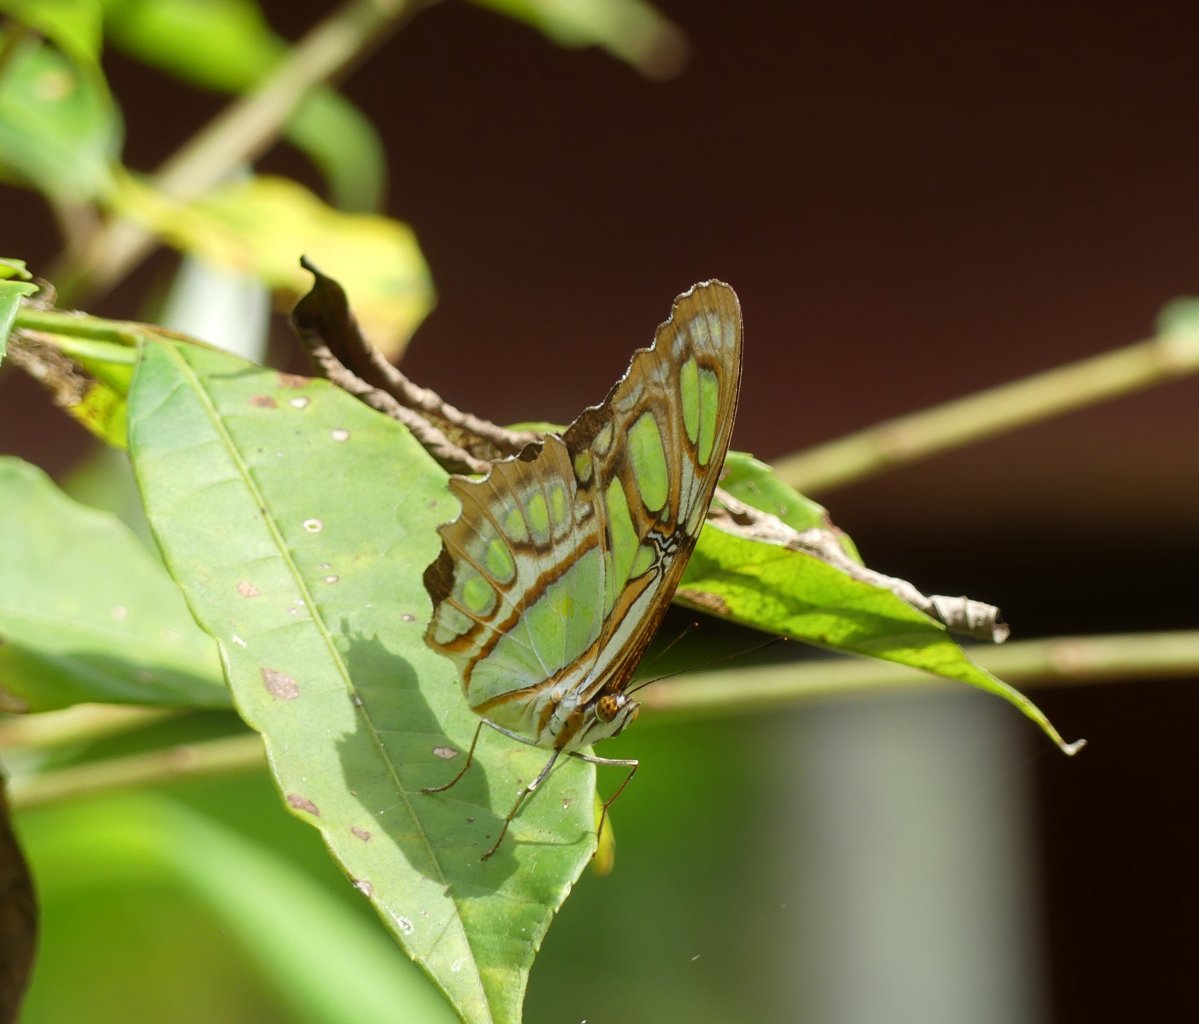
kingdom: Animalia
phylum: Arthropoda
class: Insecta
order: Lepidoptera
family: Nymphalidae
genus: Siproeta
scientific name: Siproeta stelenes
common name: Malachite
